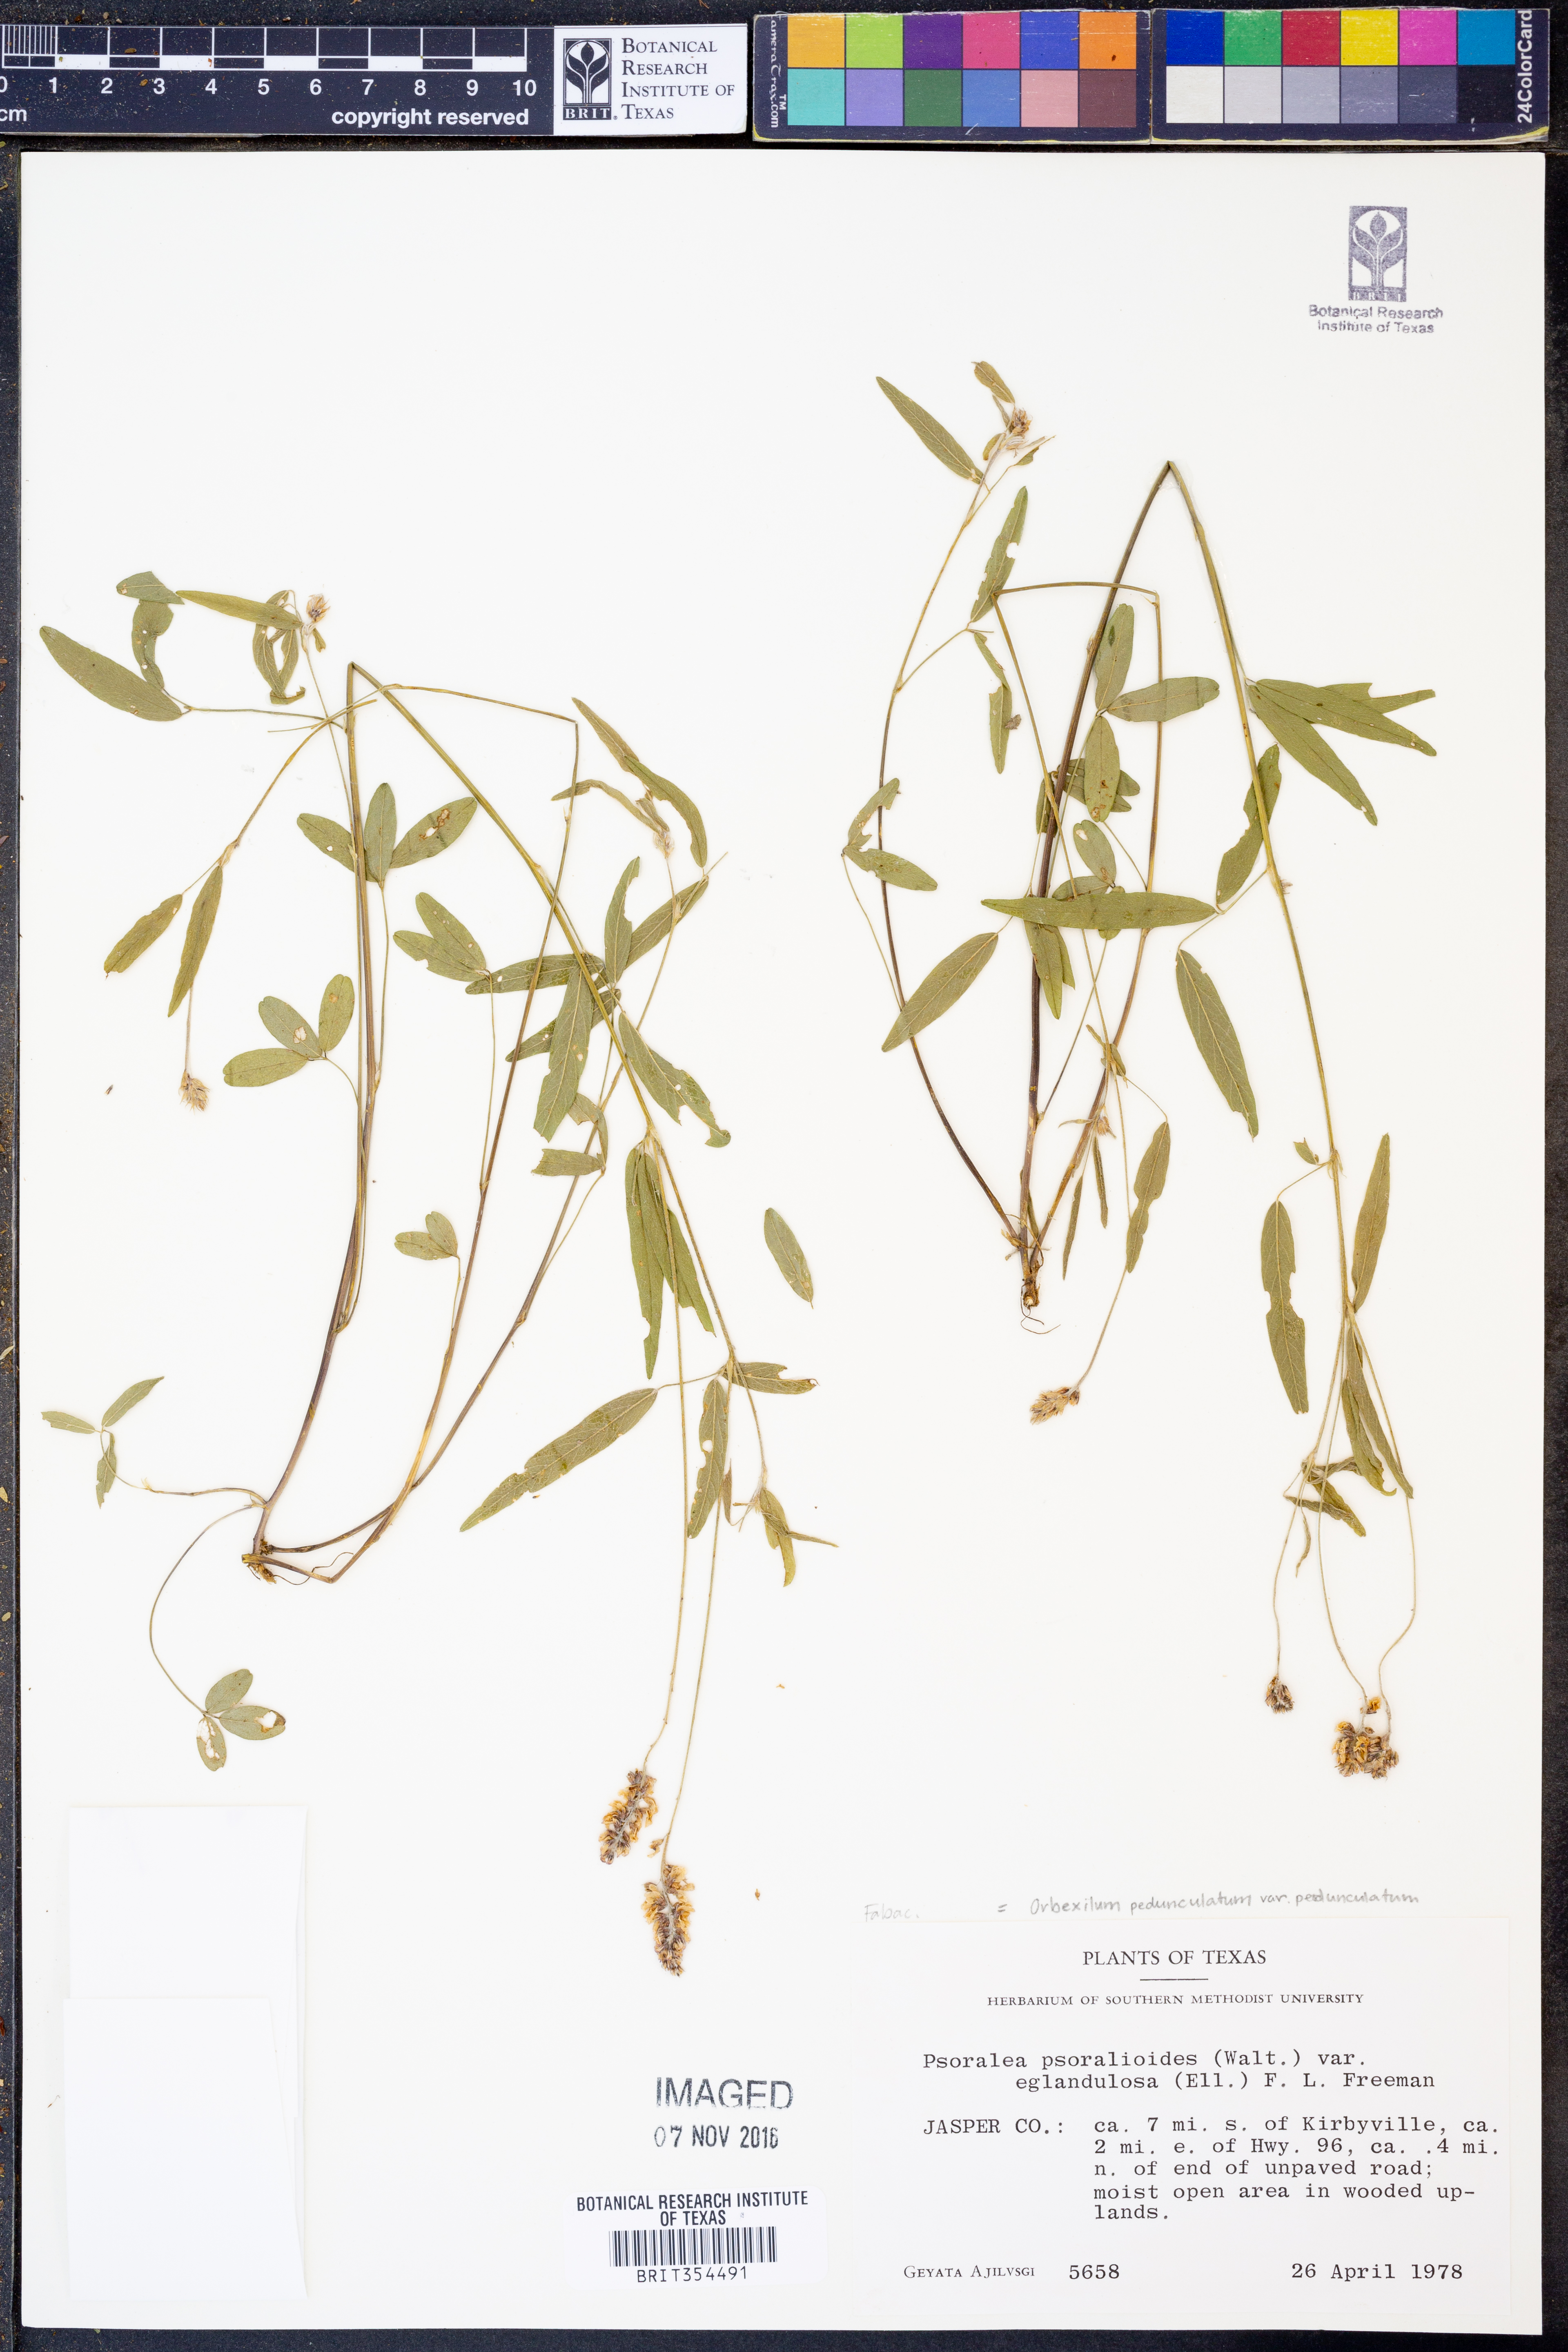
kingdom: Plantae
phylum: Tracheophyta
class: Magnoliopsida
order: Fabales
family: Fabaceae
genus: Orbexilum
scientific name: Orbexilum pedunculatum
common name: Sampson's snakeroot
